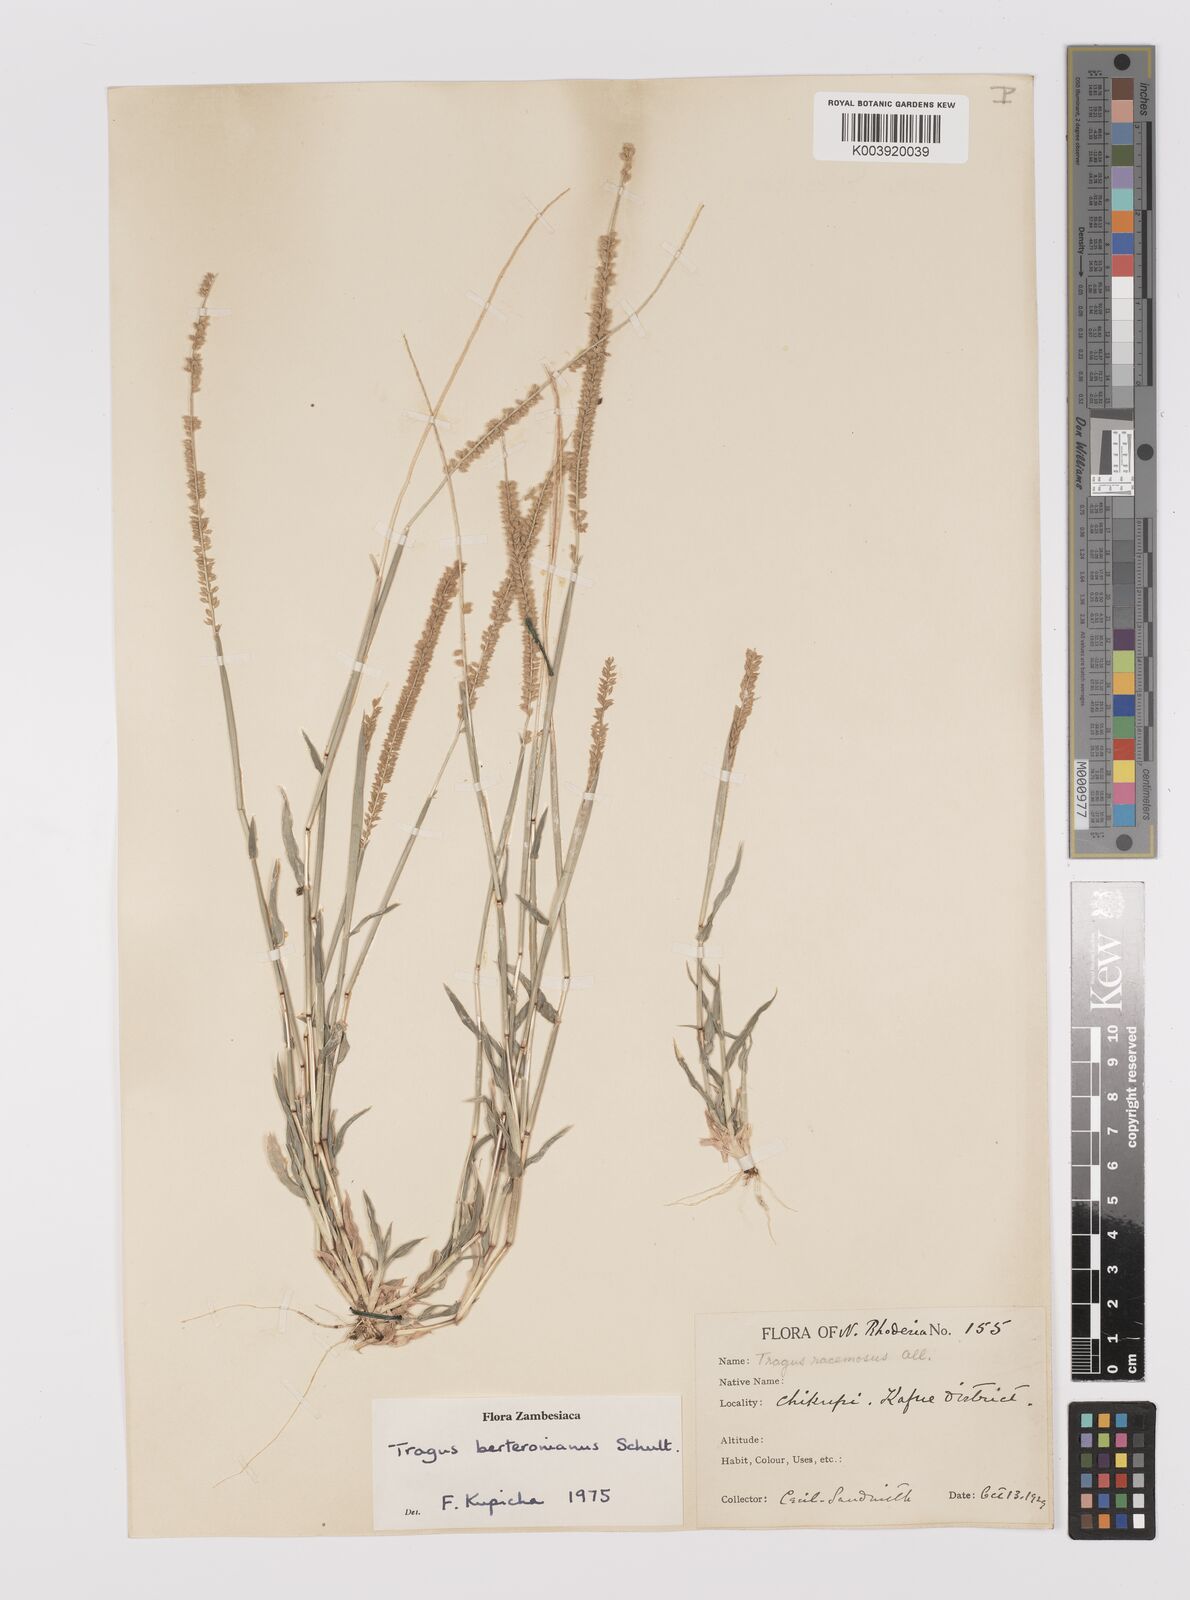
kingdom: Plantae
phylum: Tracheophyta
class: Liliopsida
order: Poales
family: Poaceae
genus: Tragus
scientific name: Tragus berteronianus
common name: African bur-grass
